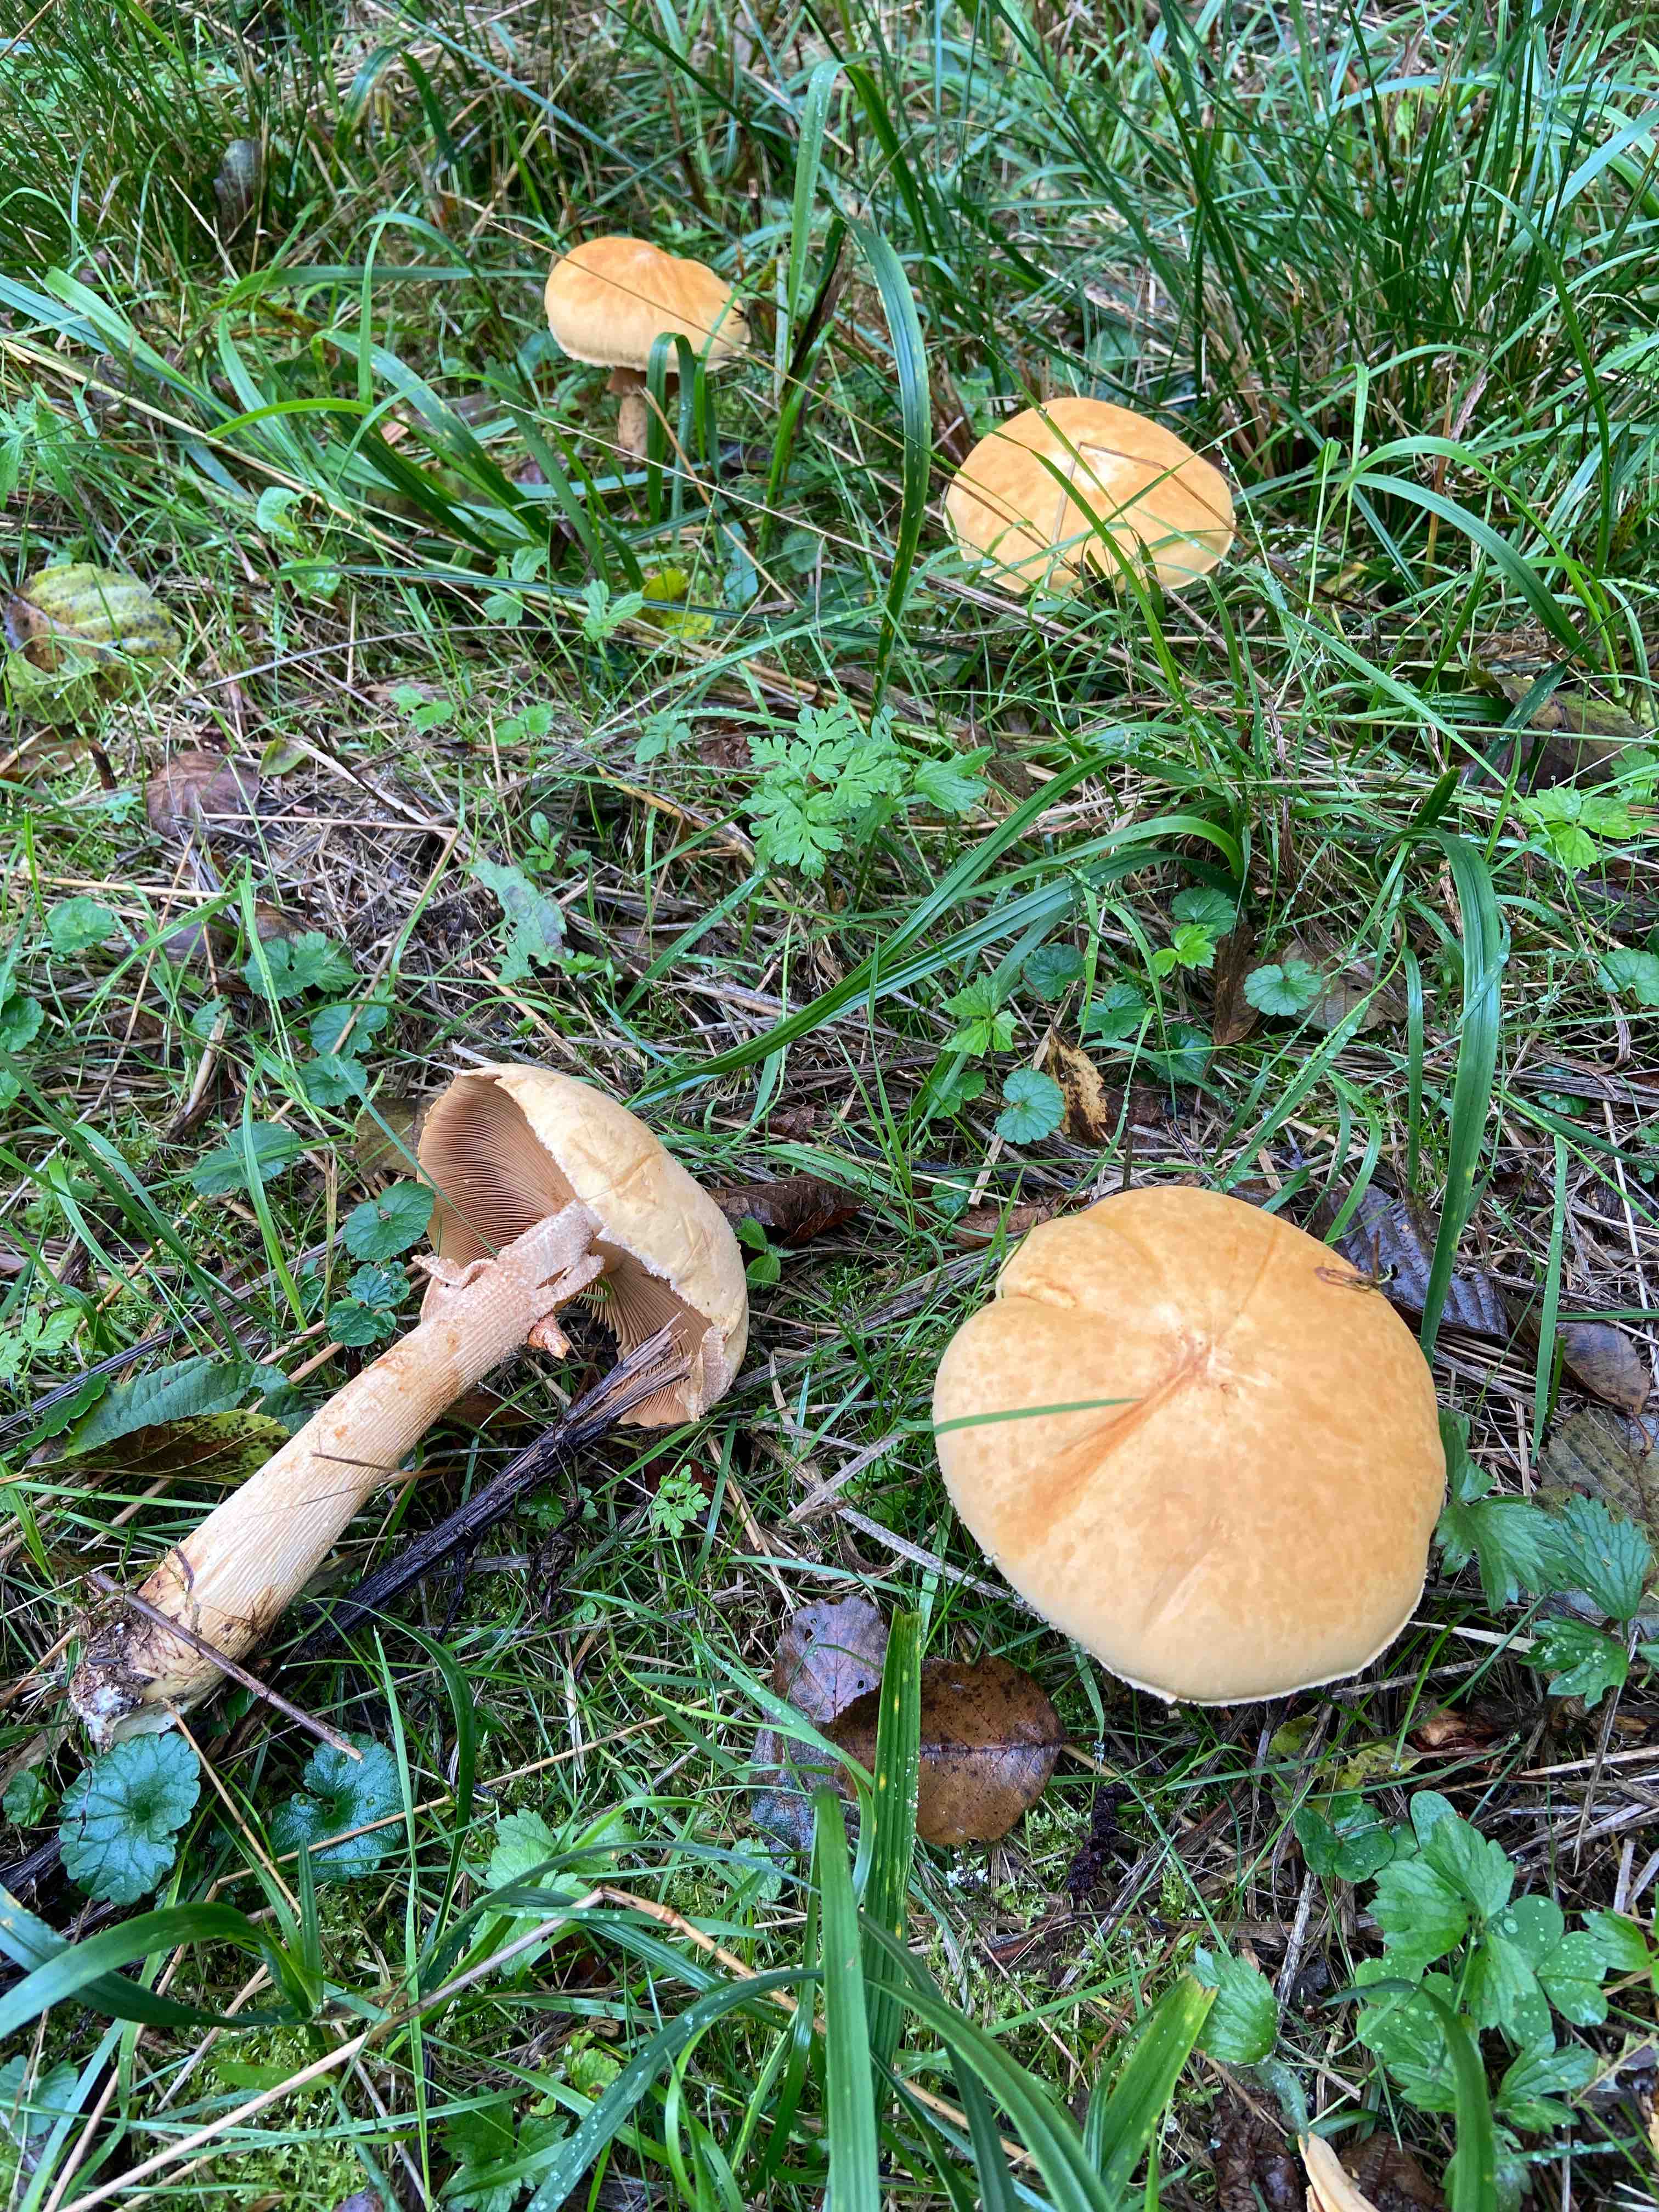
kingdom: Fungi
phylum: Basidiomycota
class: Agaricomycetes
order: Agaricales
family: Tricholomataceae
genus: Phaeolepiota
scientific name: Phaeolepiota aurea
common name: gyldenhat
